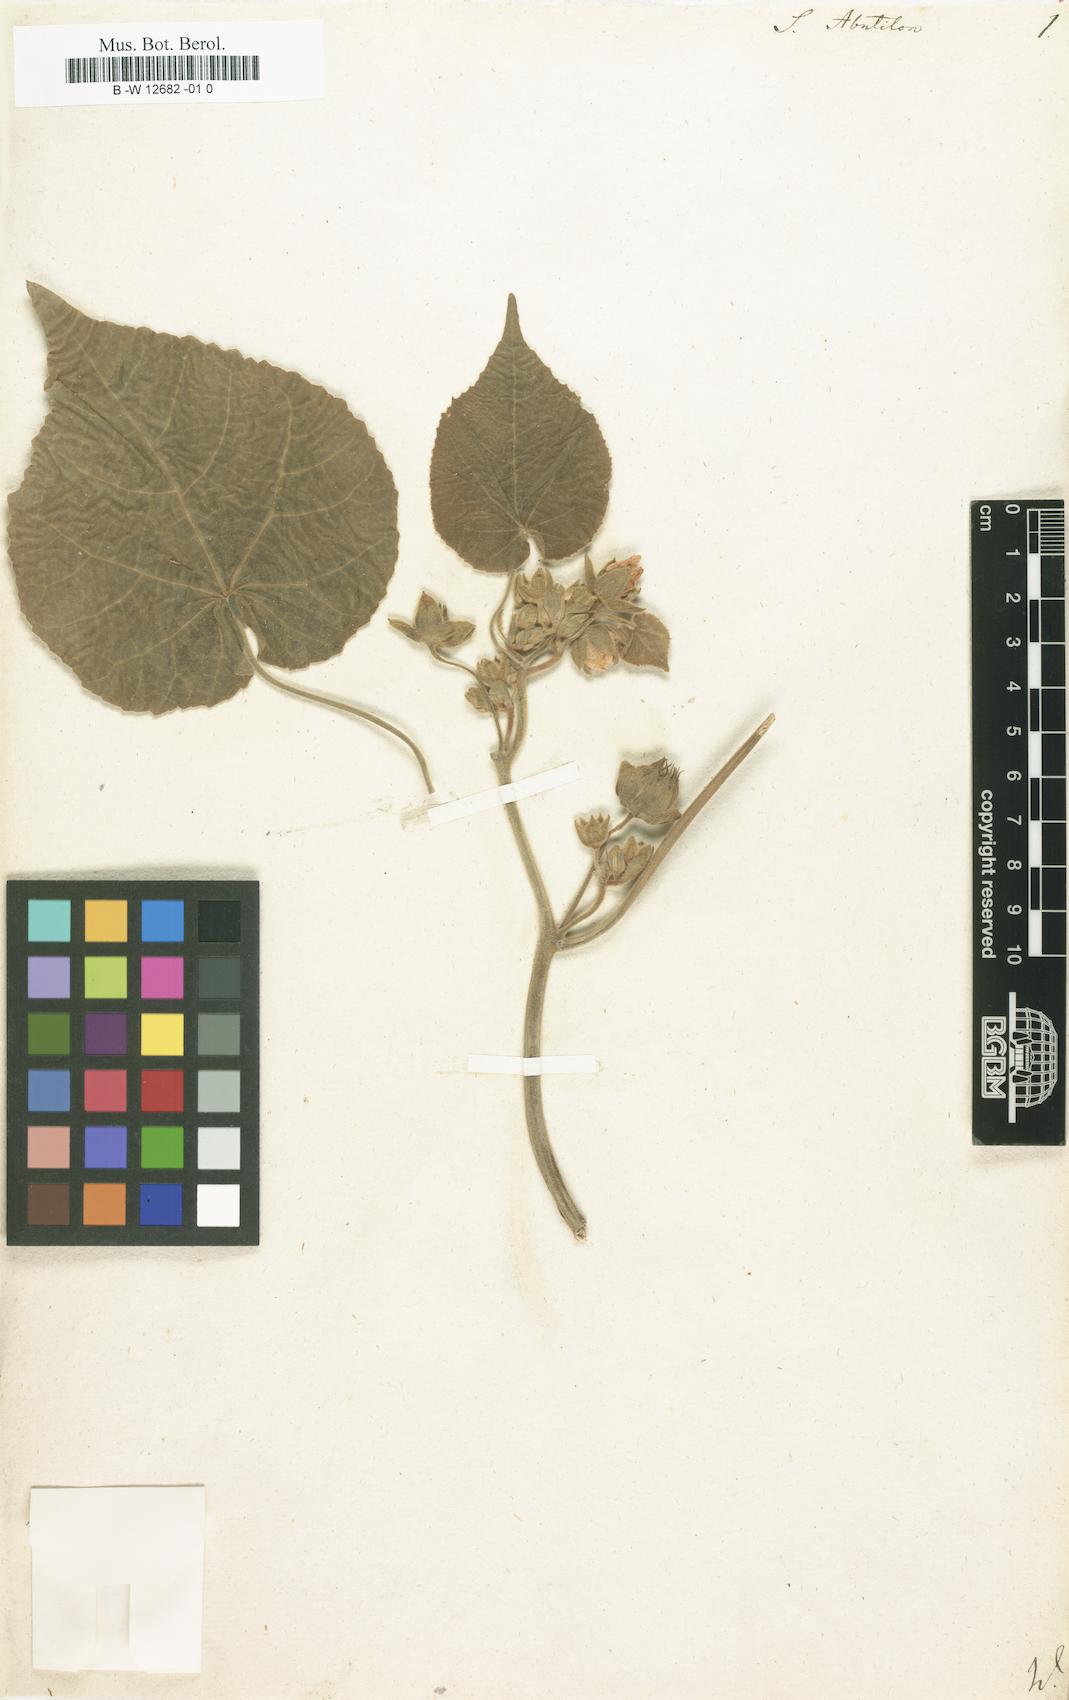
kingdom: Plantae
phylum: Tracheophyta
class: Magnoliopsida
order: Malvales
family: Malvaceae
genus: Abutilon
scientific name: Abutilon theophrasti
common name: Velvetleaf
